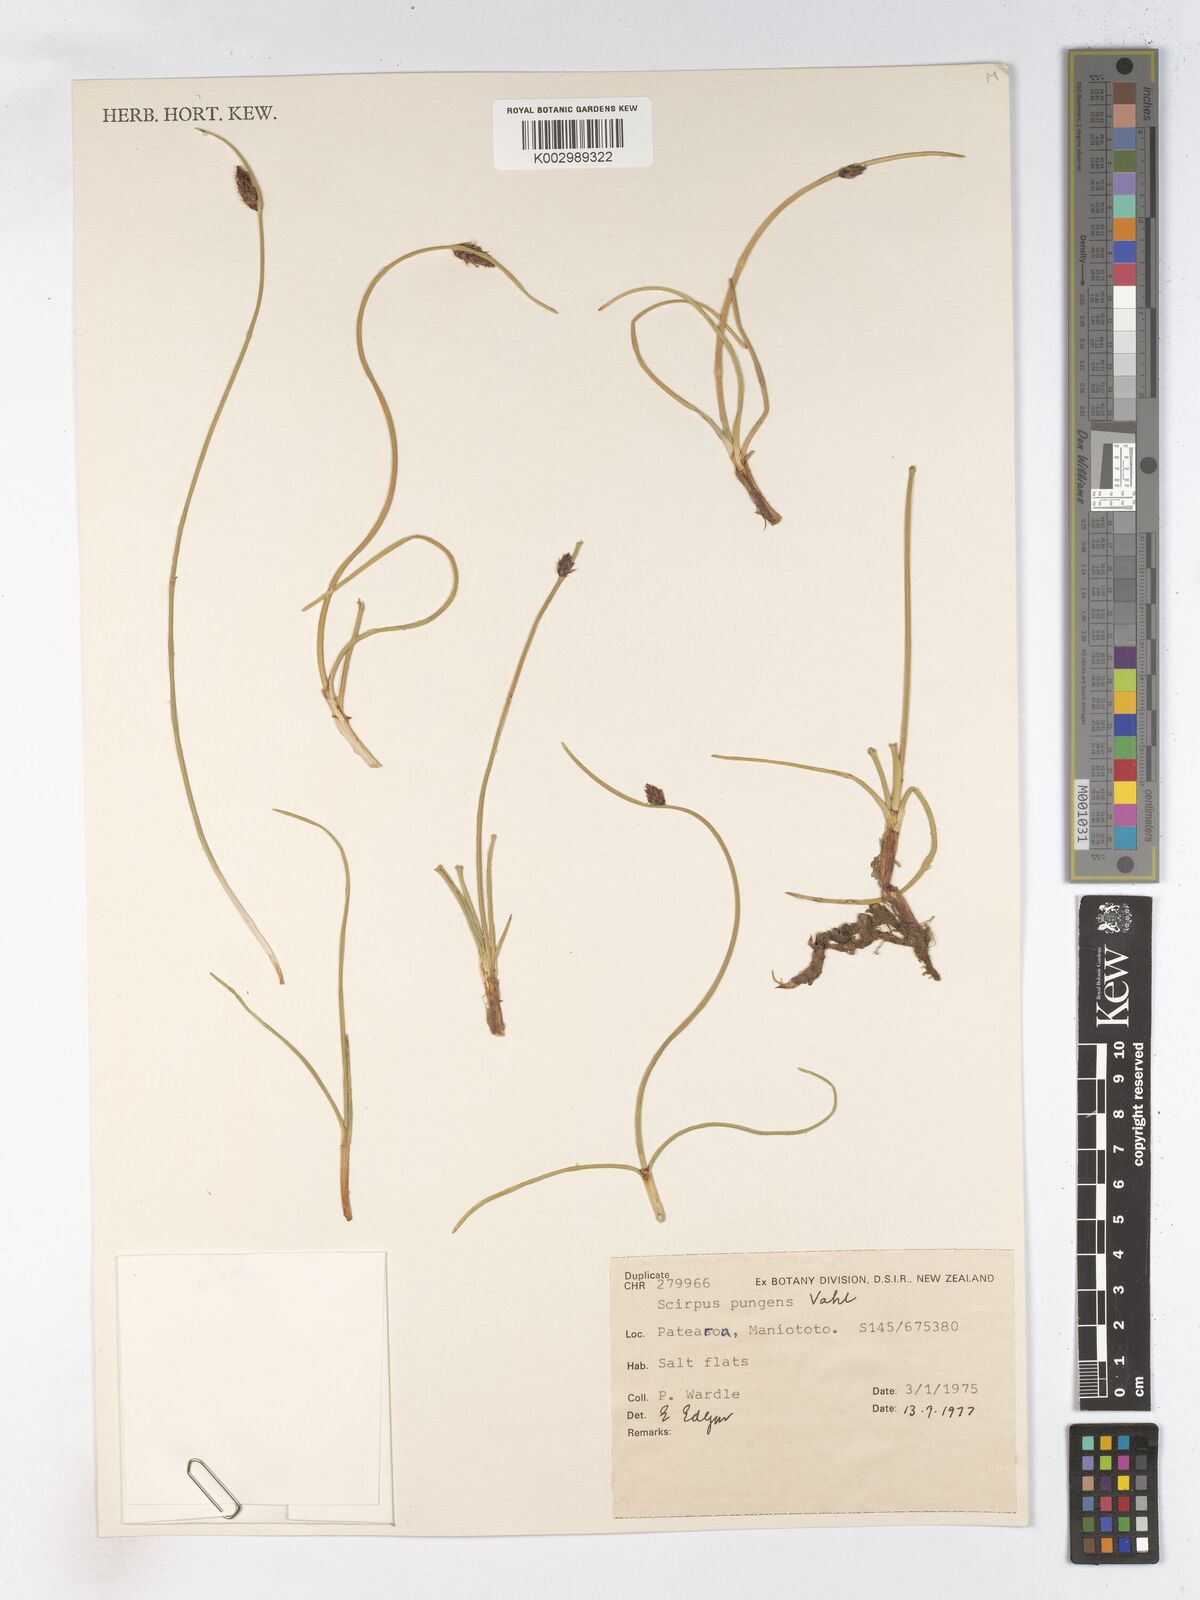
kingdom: Plantae
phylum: Tracheophyta
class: Liliopsida
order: Poales
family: Cyperaceae
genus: Schoenoplectus
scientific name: Schoenoplectus pungens
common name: Sharp club-rush
